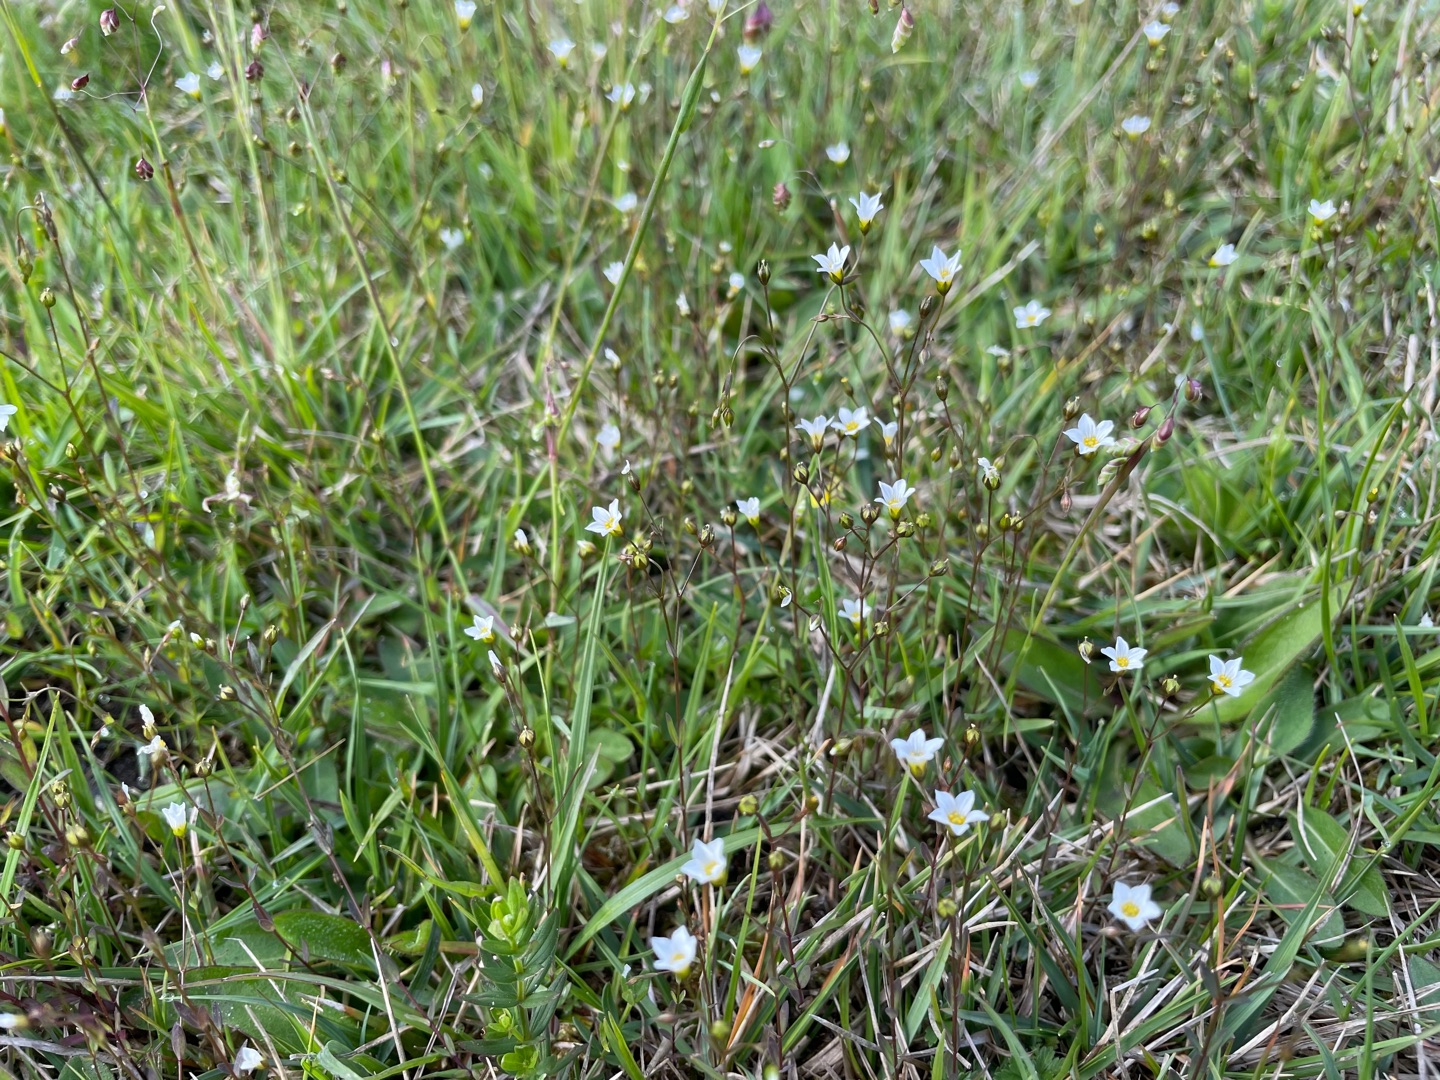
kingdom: Plantae
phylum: Tracheophyta
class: Magnoliopsida
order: Malpighiales
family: Linaceae
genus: Linum
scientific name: Linum catharticum
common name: Vild hør
